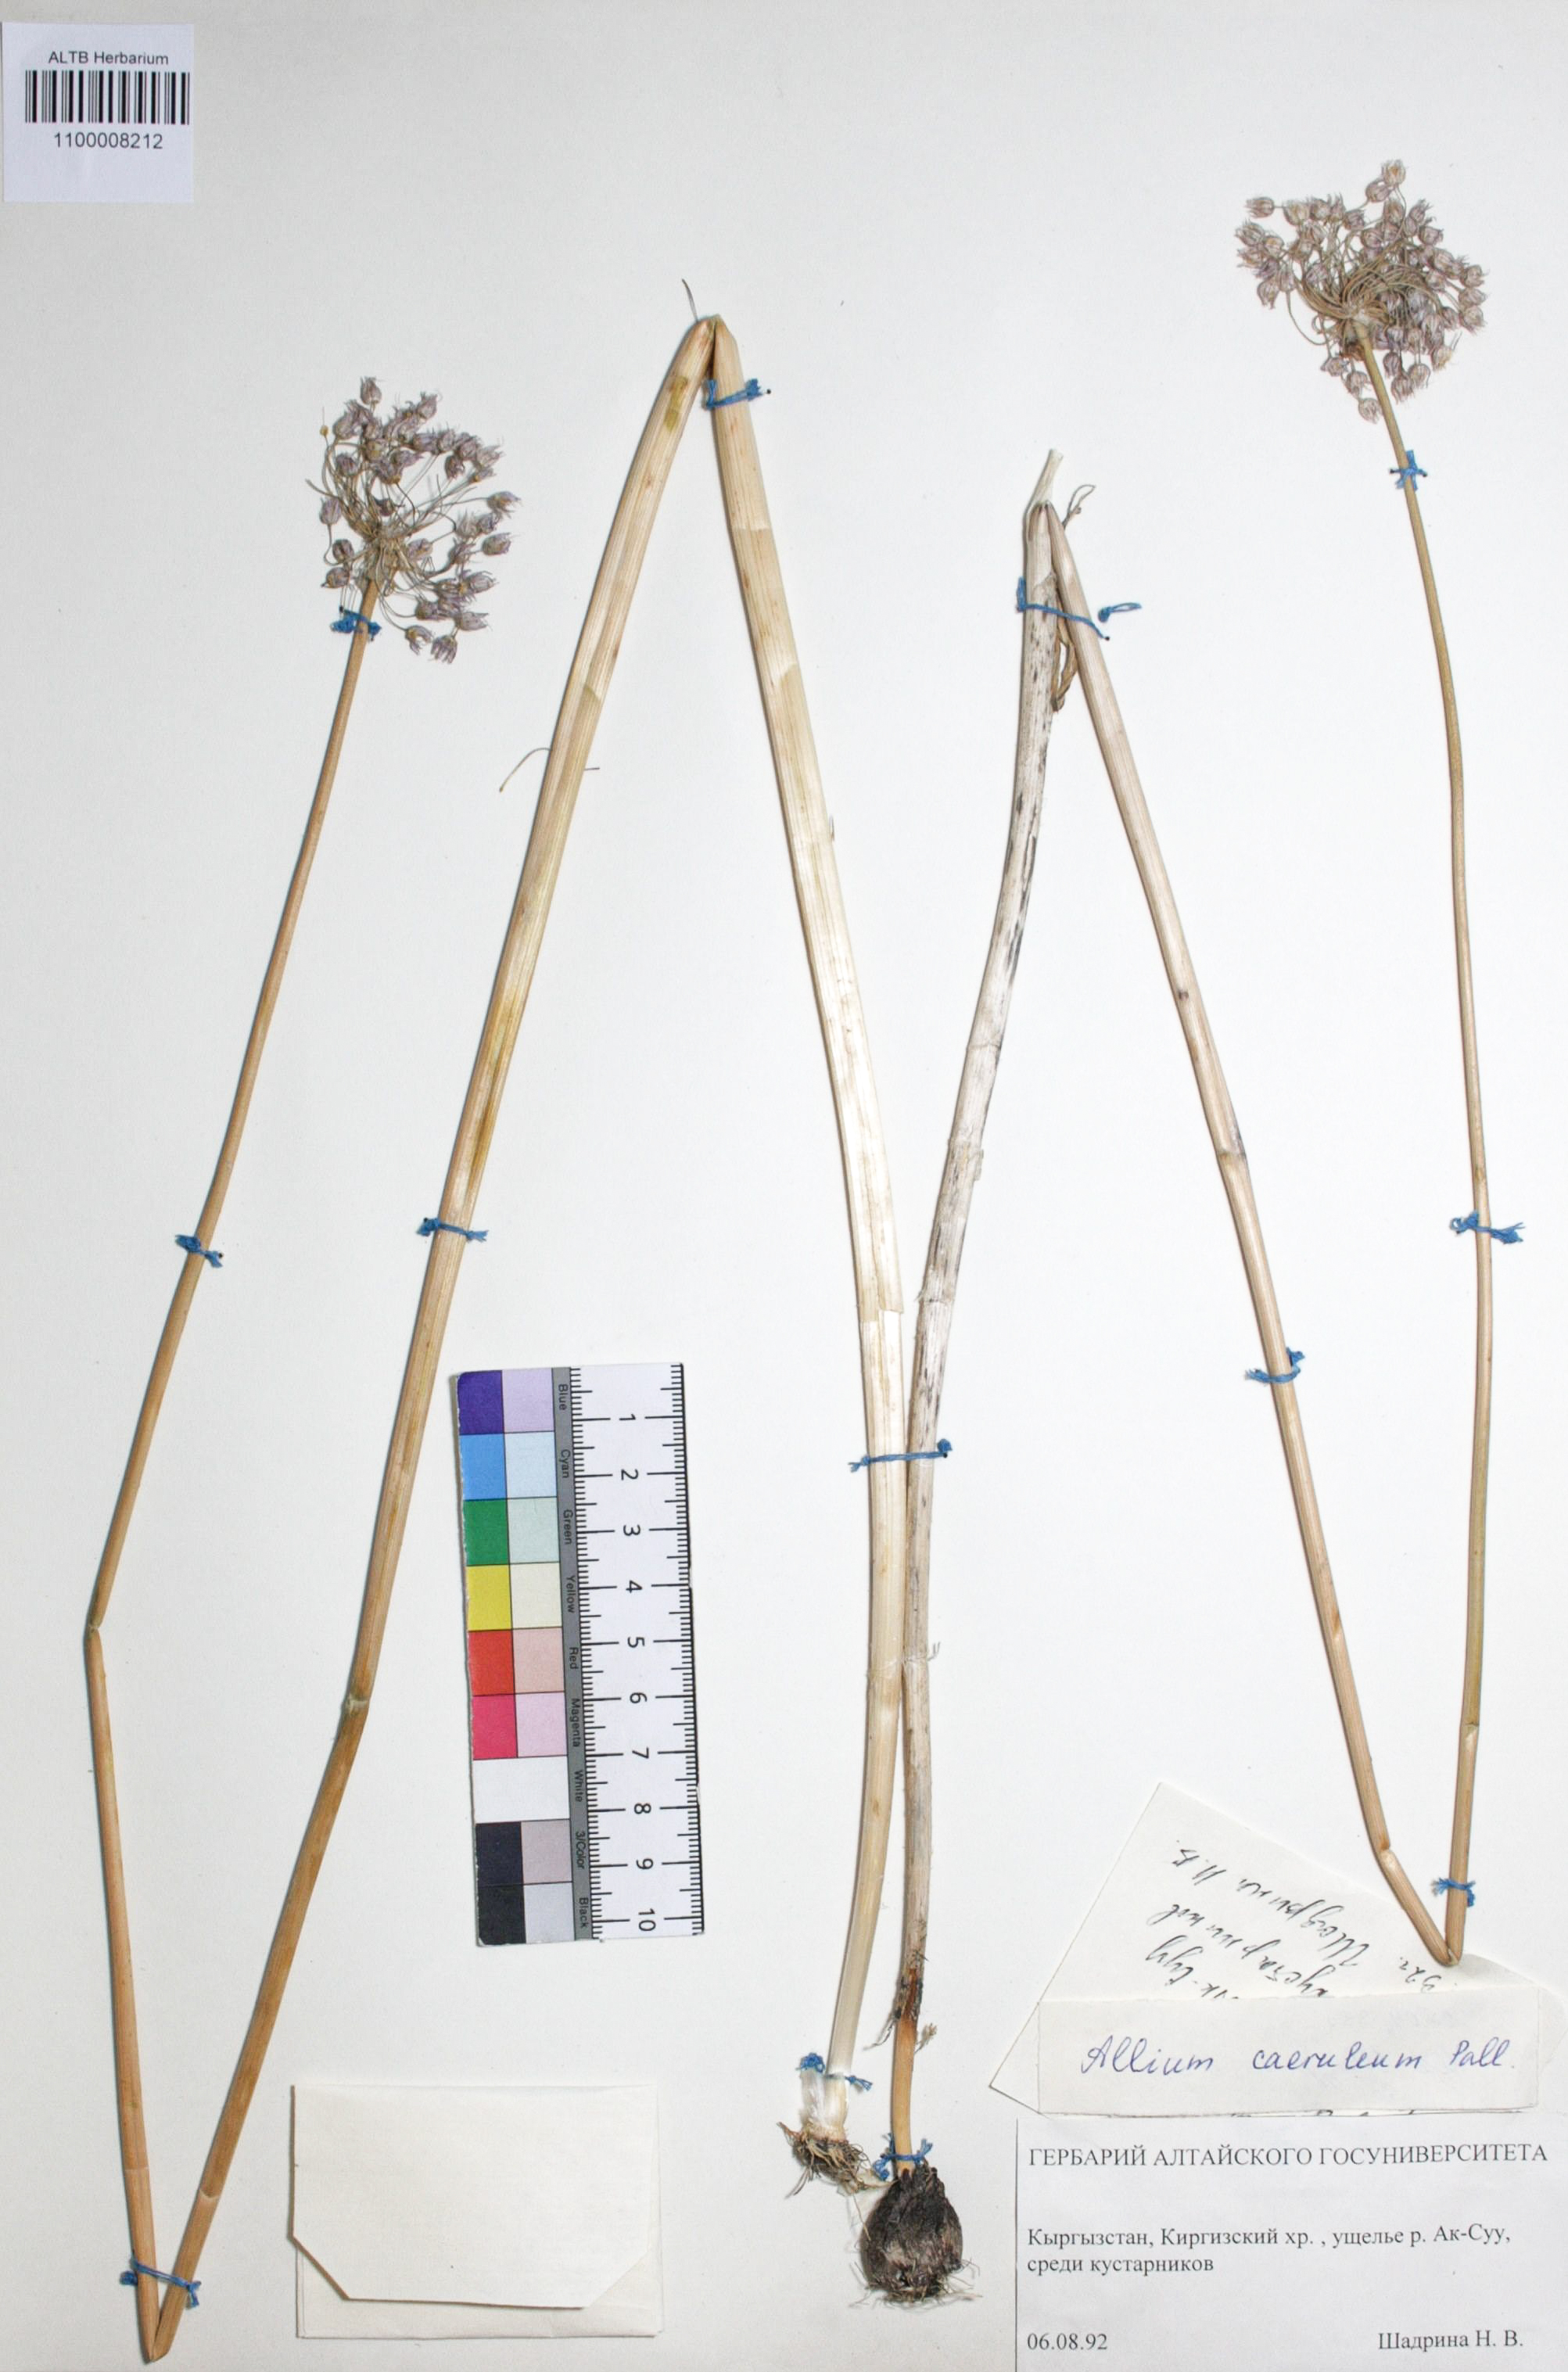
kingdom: Plantae
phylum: Tracheophyta
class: Liliopsida
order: Asparagales
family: Amaryllidaceae
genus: Allium
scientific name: Allium caeruleum
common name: Blue-of-the-heavens
